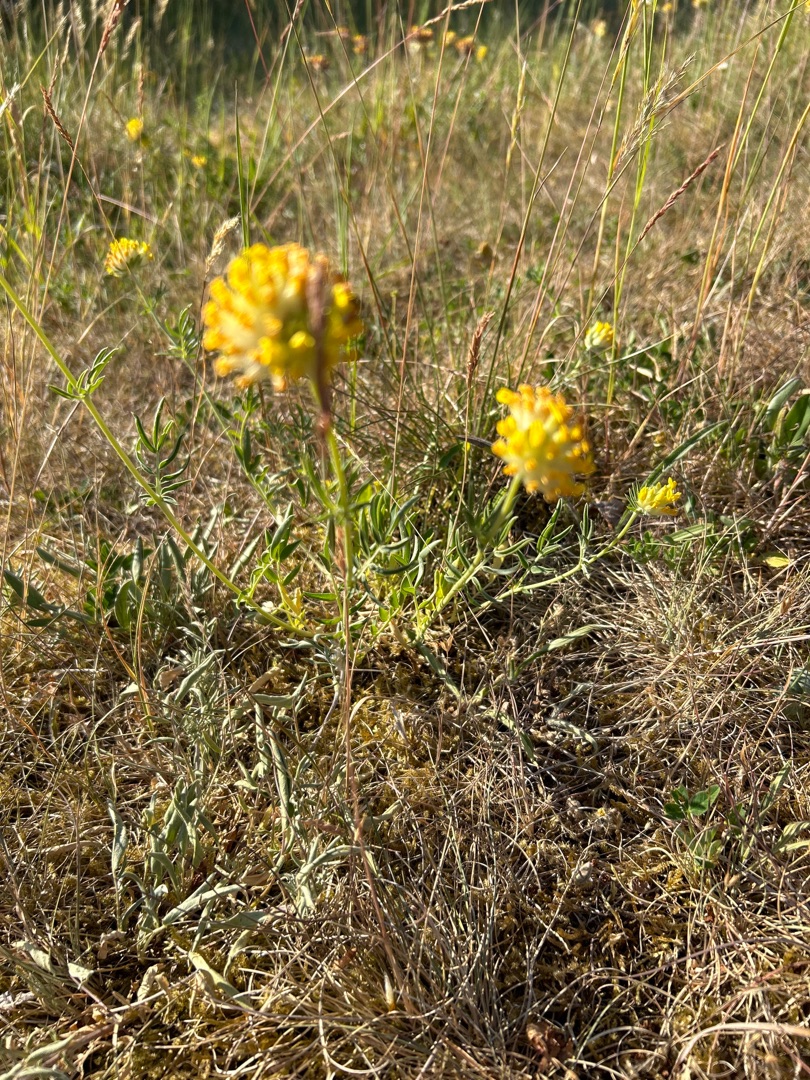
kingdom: Plantae
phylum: Tracheophyta
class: Magnoliopsida
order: Fabales
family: Fabaceae
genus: Anthyllis
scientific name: Anthyllis vulneraria
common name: Rundbælg
